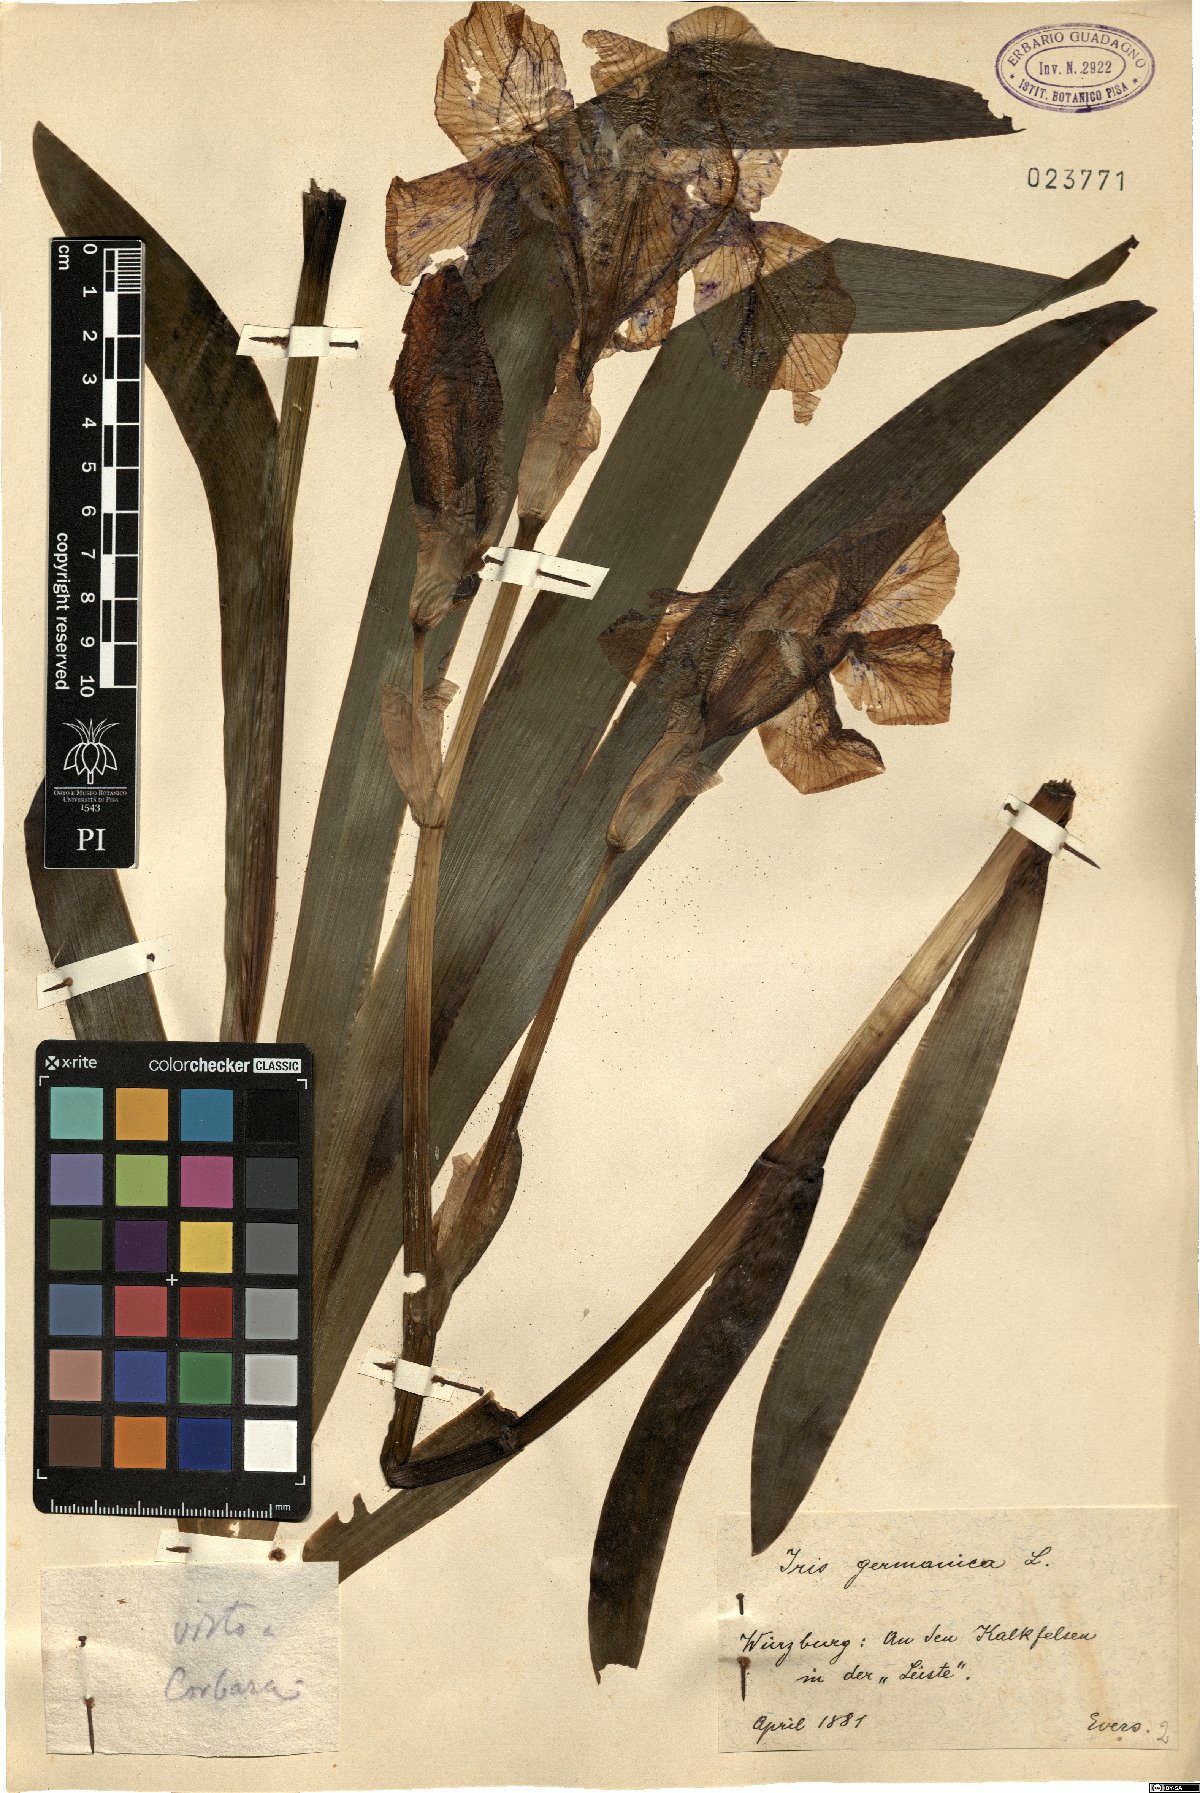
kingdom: Plantae
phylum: Tracheophyta
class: Liliopsida
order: Asparagales
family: Iridaceae
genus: Iris
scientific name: Iris germanica
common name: German iris
